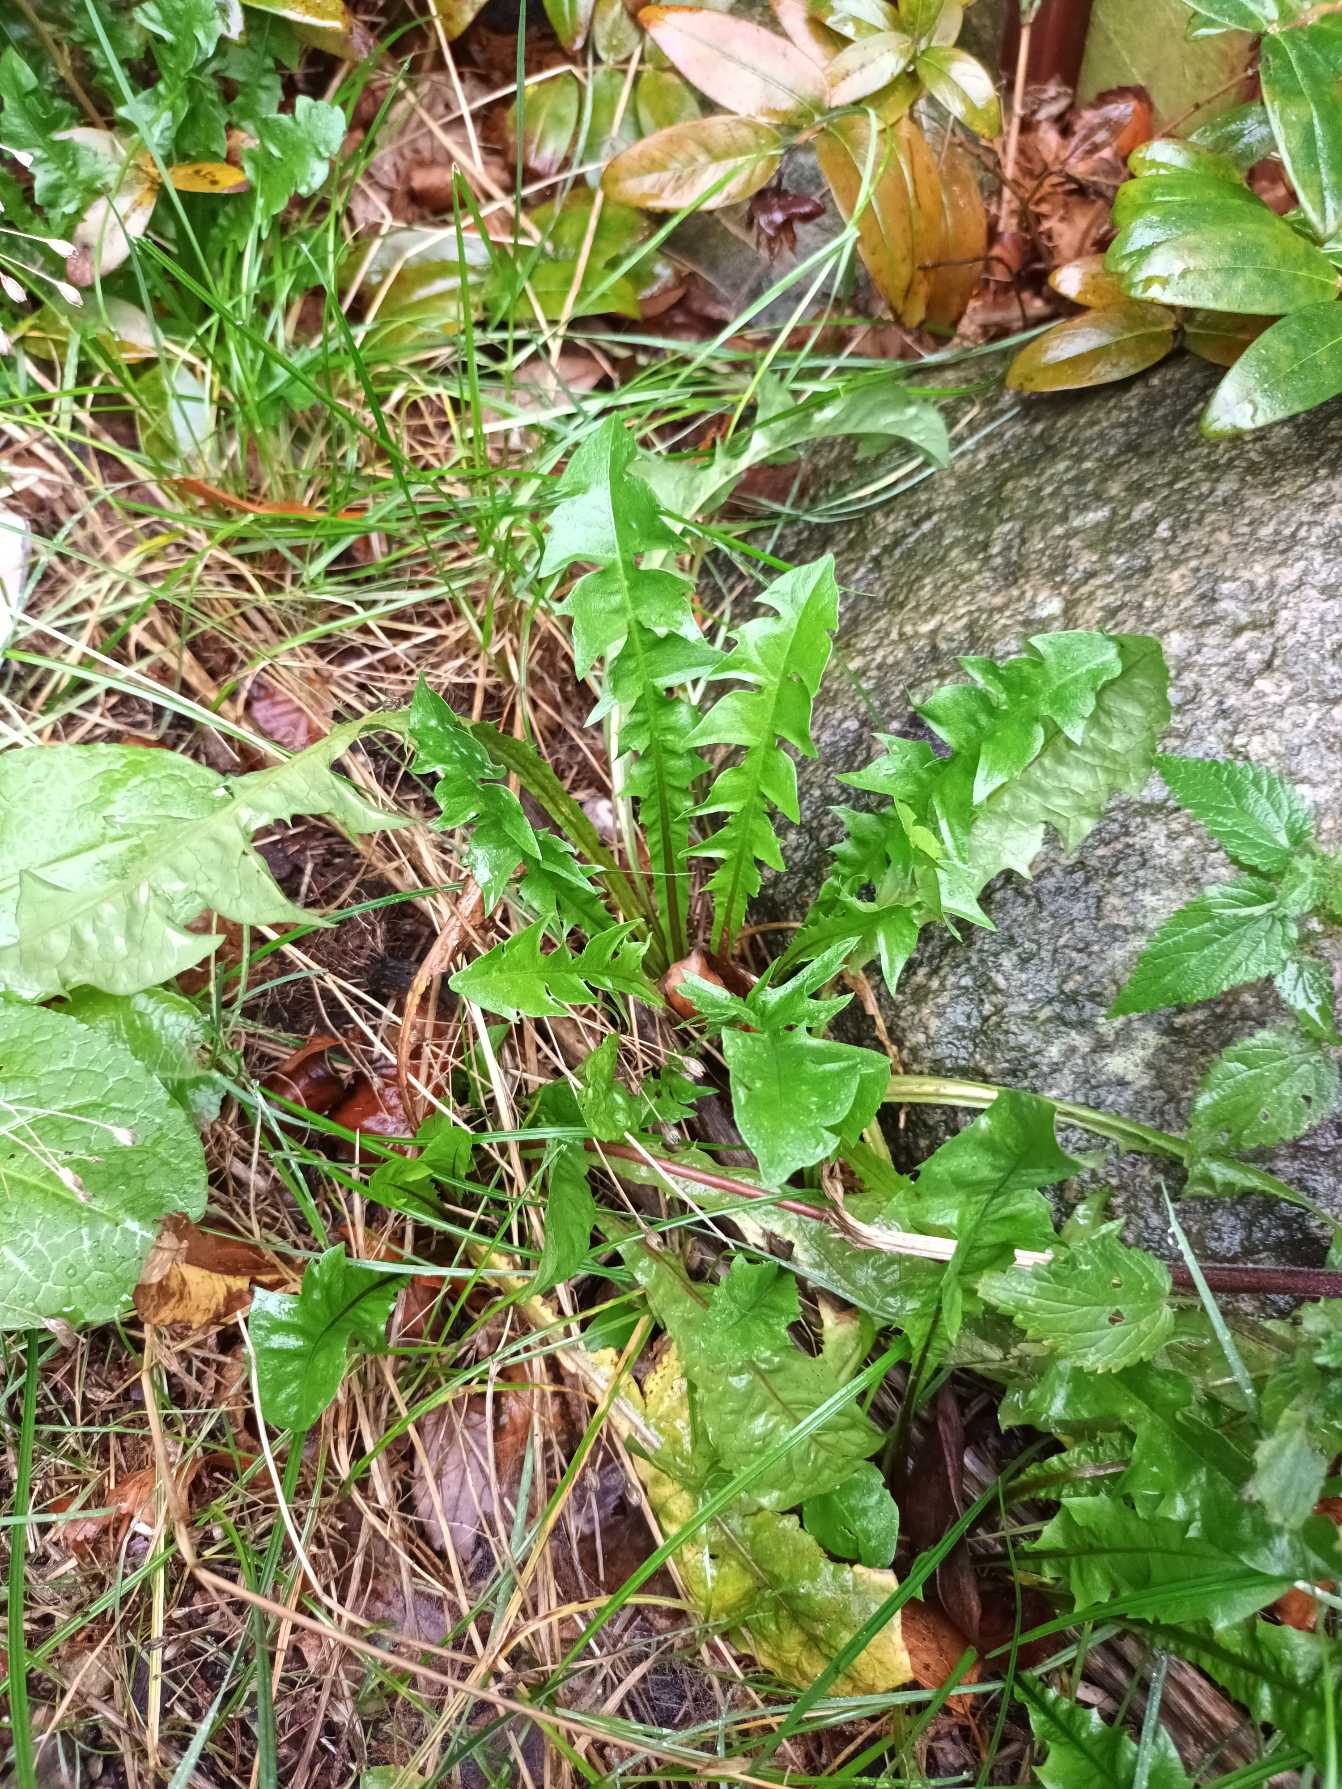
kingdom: Plantae
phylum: Tracheophyta
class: Magnoliopsida
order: Asterales
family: Asteraceae
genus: Taraxacum
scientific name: Taraxacum
